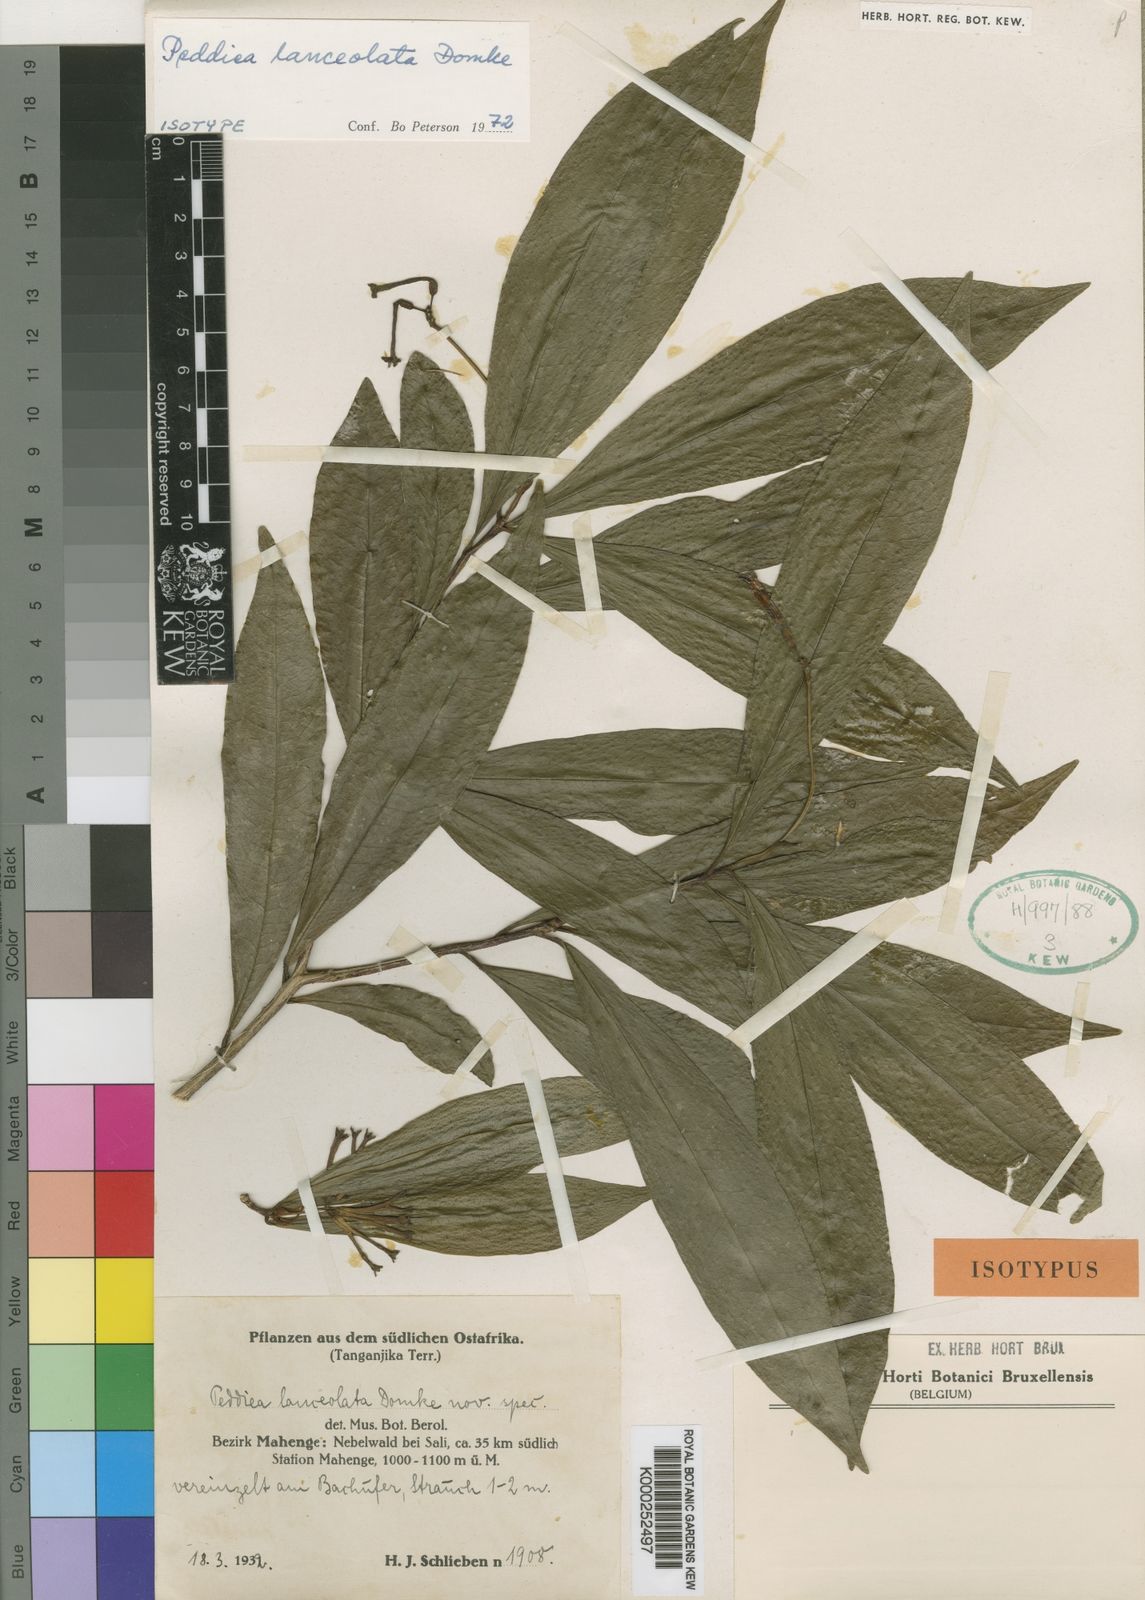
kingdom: Plantae
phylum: Tracheophyta
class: Magnoliopsida
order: Malvales
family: Thymelaeaceae
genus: Peddiea
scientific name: Peddiea lanceolata
